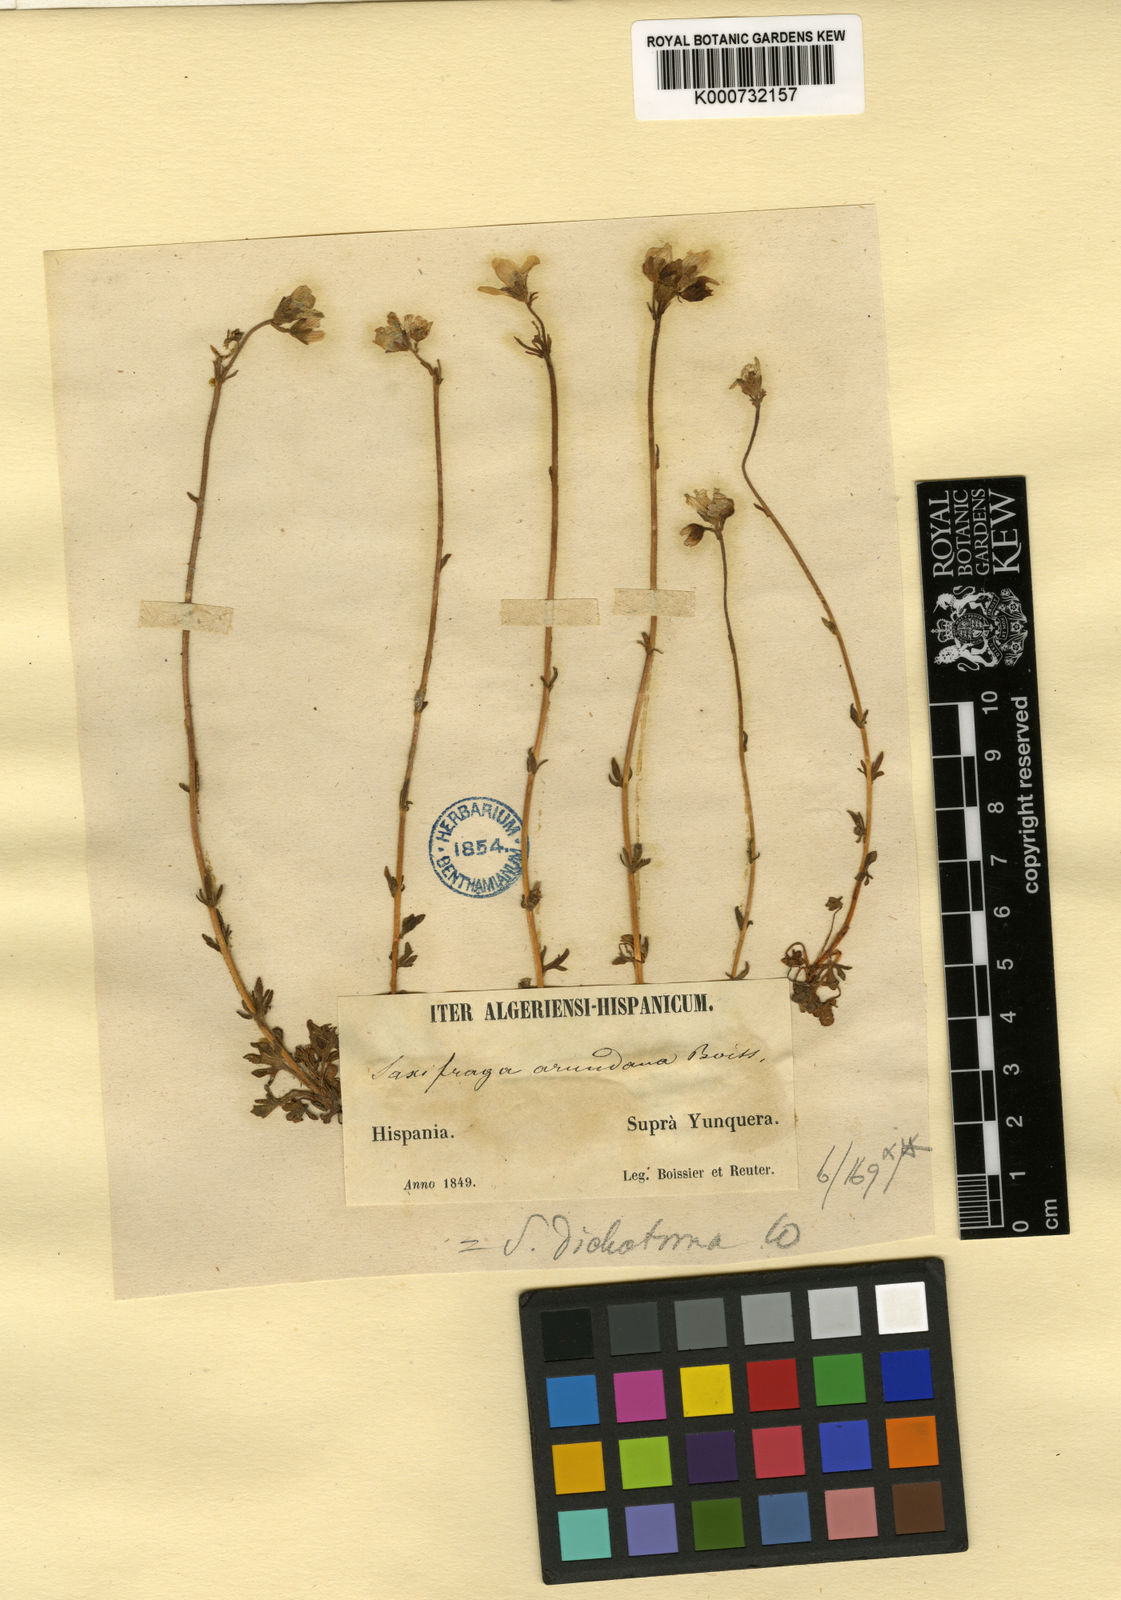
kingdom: Plantae
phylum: Tracheophyta
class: Magnoliopsida
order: Saxifragales
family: Saxifragaceae
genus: Saxifraga
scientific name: Saxifraga
